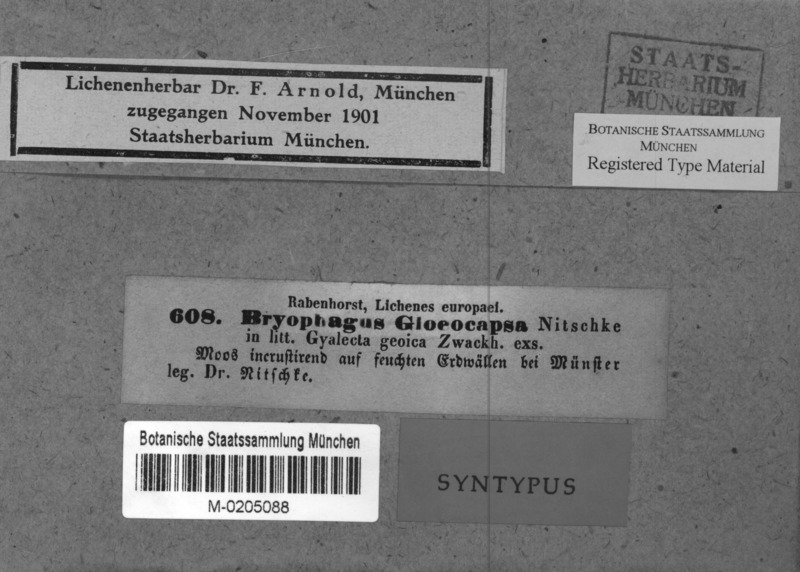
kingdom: Fungi
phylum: Ascomycota
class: Lecanoromycetes
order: Ostropales
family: Stictidaceae
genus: Cryptodiscus
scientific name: Cryptodiscus gloeocapsa
